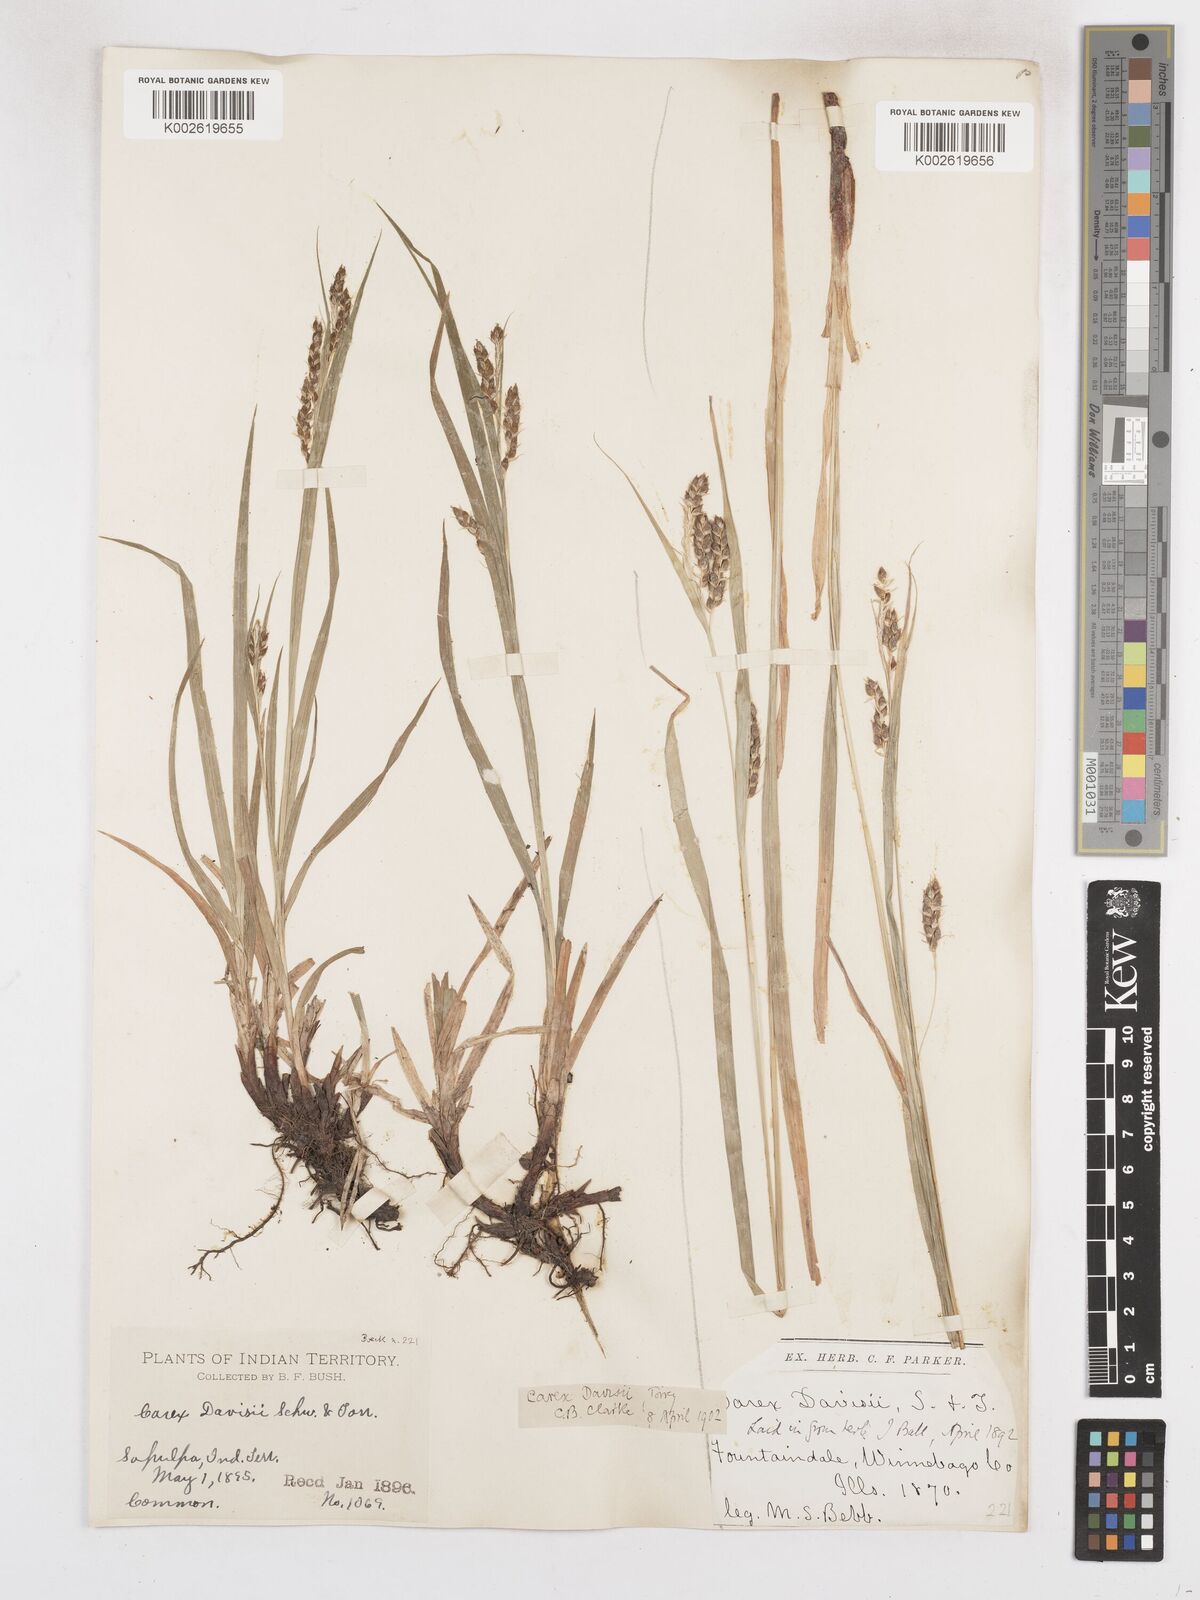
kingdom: Plantae
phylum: Tracheophyta
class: Liliopsida
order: Poales
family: Cyperaceae
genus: Carex
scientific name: Carex davisii
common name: Davis' sedge
